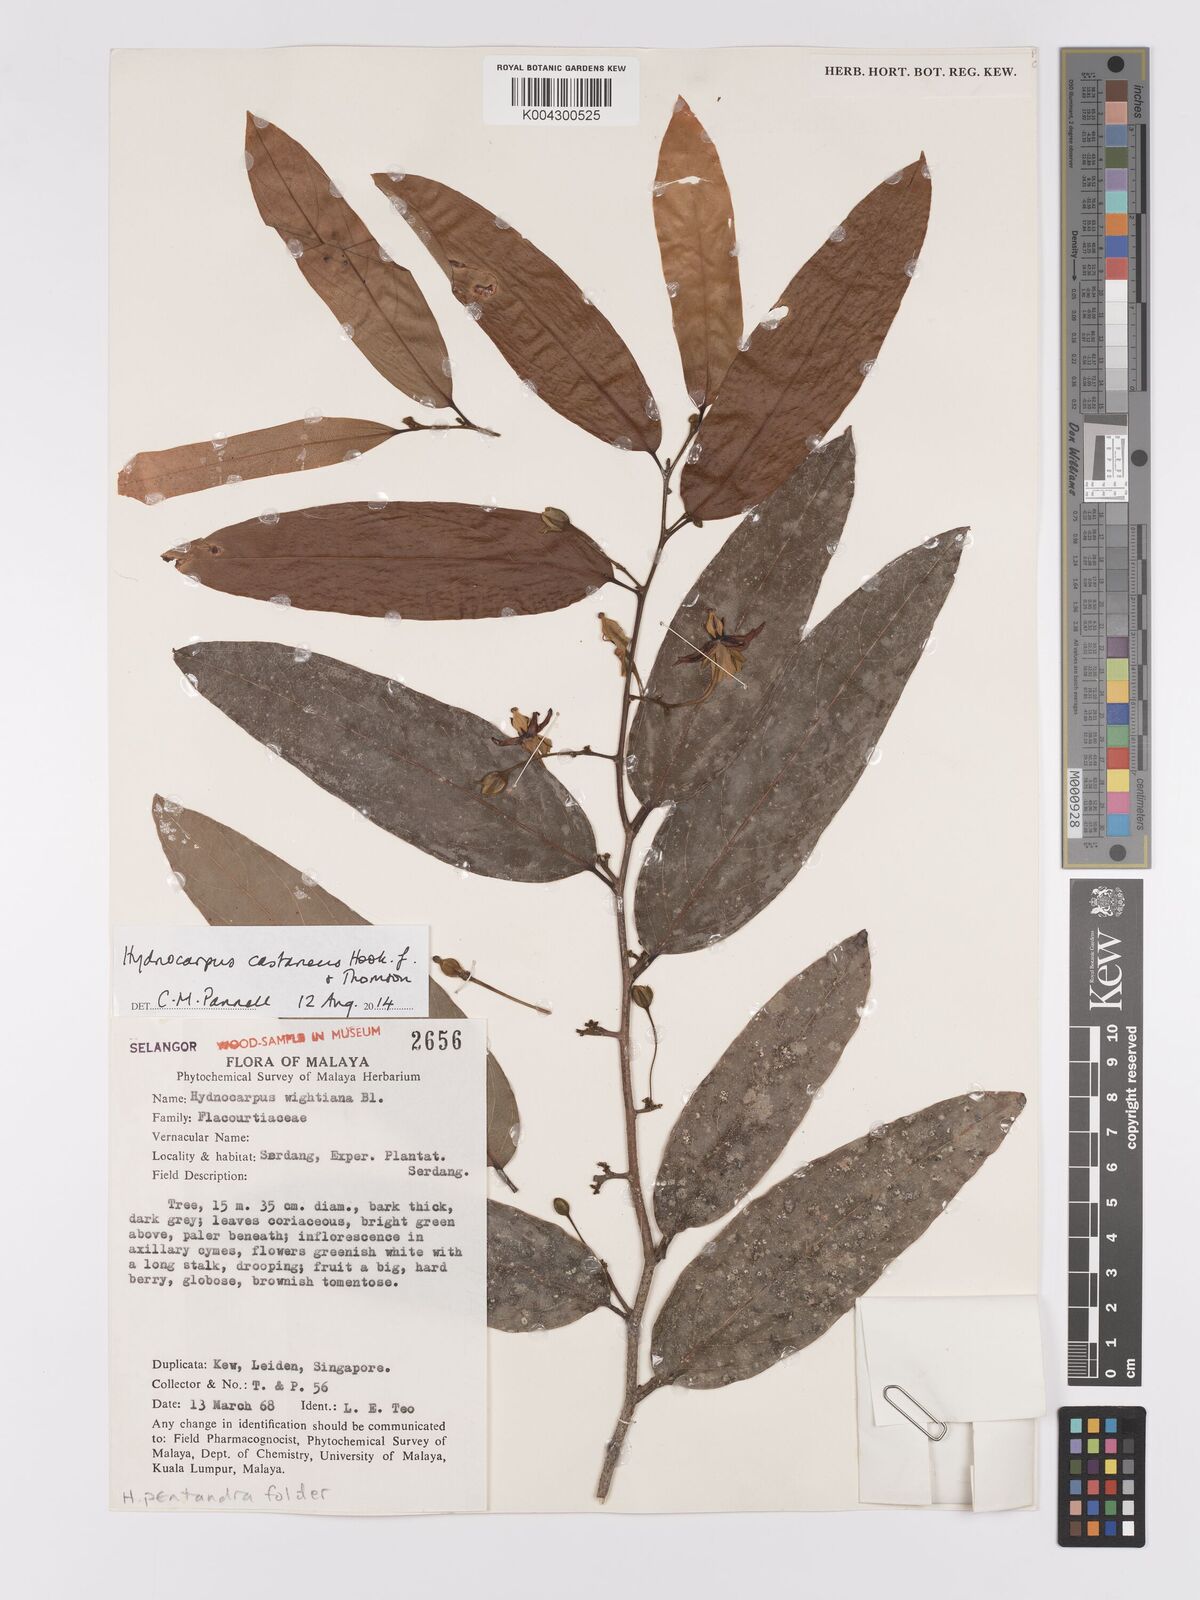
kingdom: Plantae
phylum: Tracheophyta
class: Magnoliopsida
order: Malpighiales
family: Achariaceae
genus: Hydnocarpus
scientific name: Hydnocarpus castaneus
